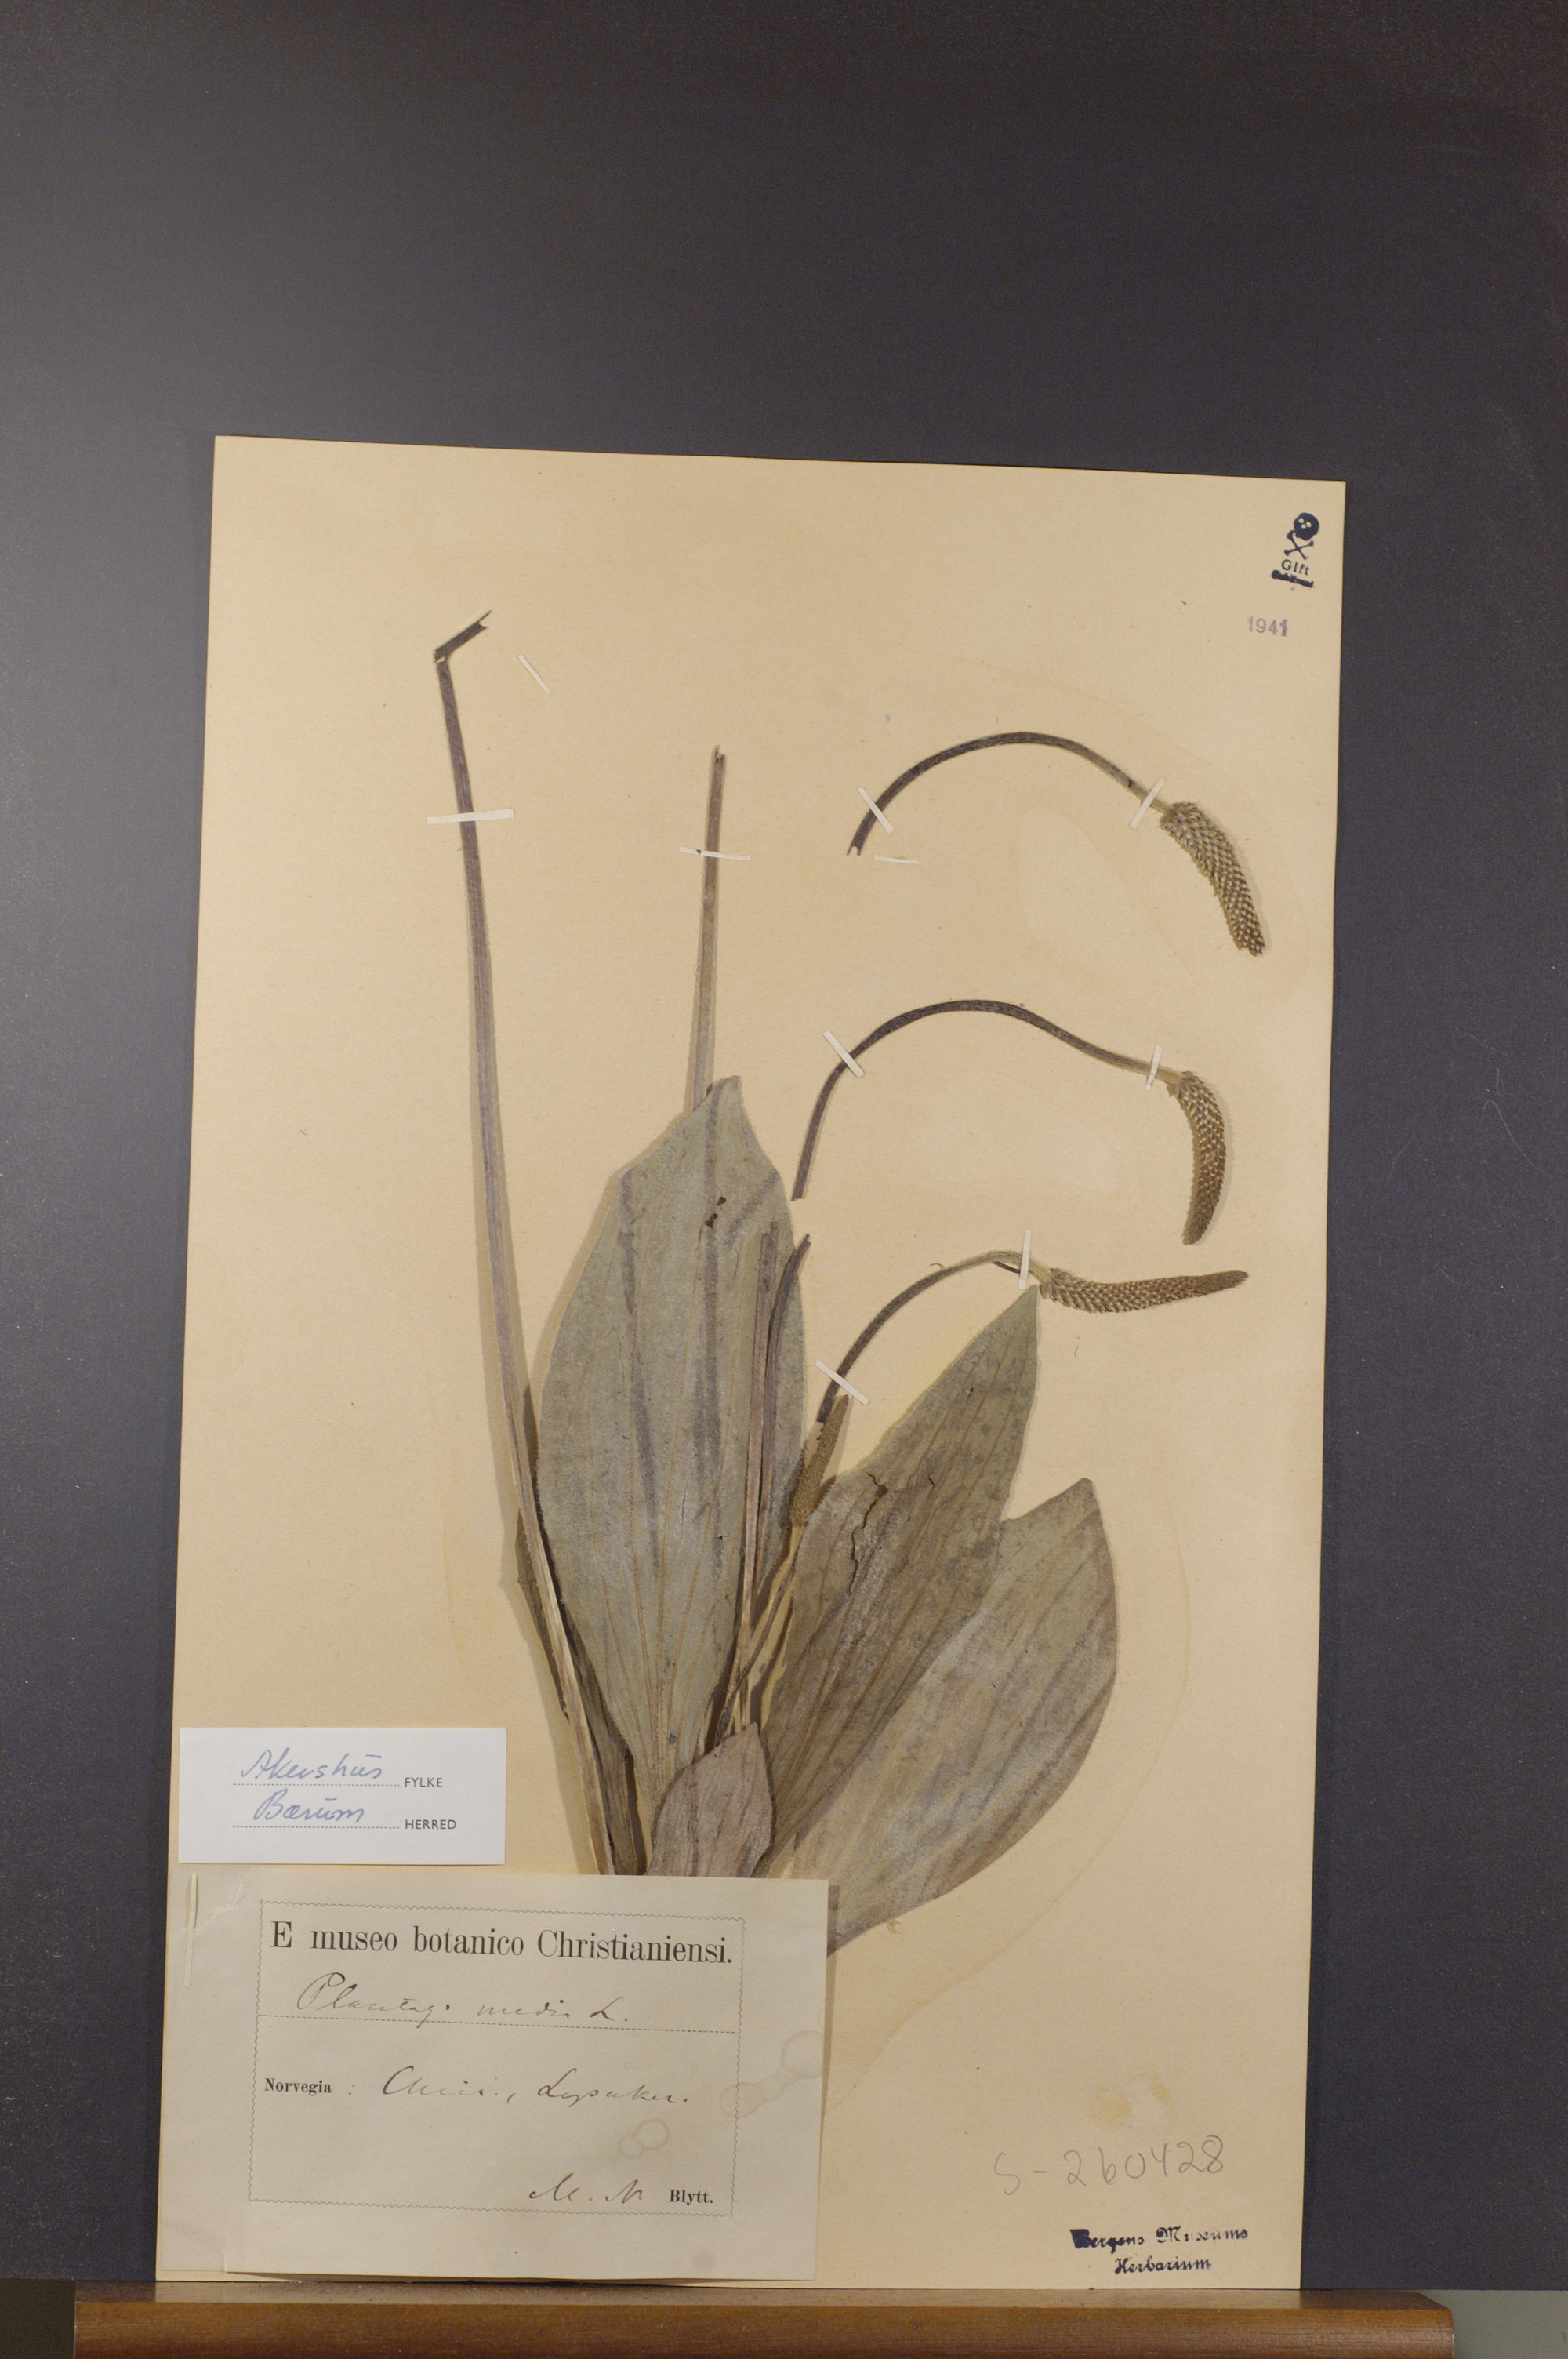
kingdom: Plantae
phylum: Tracheophyta
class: Magnoliopsida
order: Lamiales
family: Plantaginaceae
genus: Plantago
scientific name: Plantago media
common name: Hoary plantain
